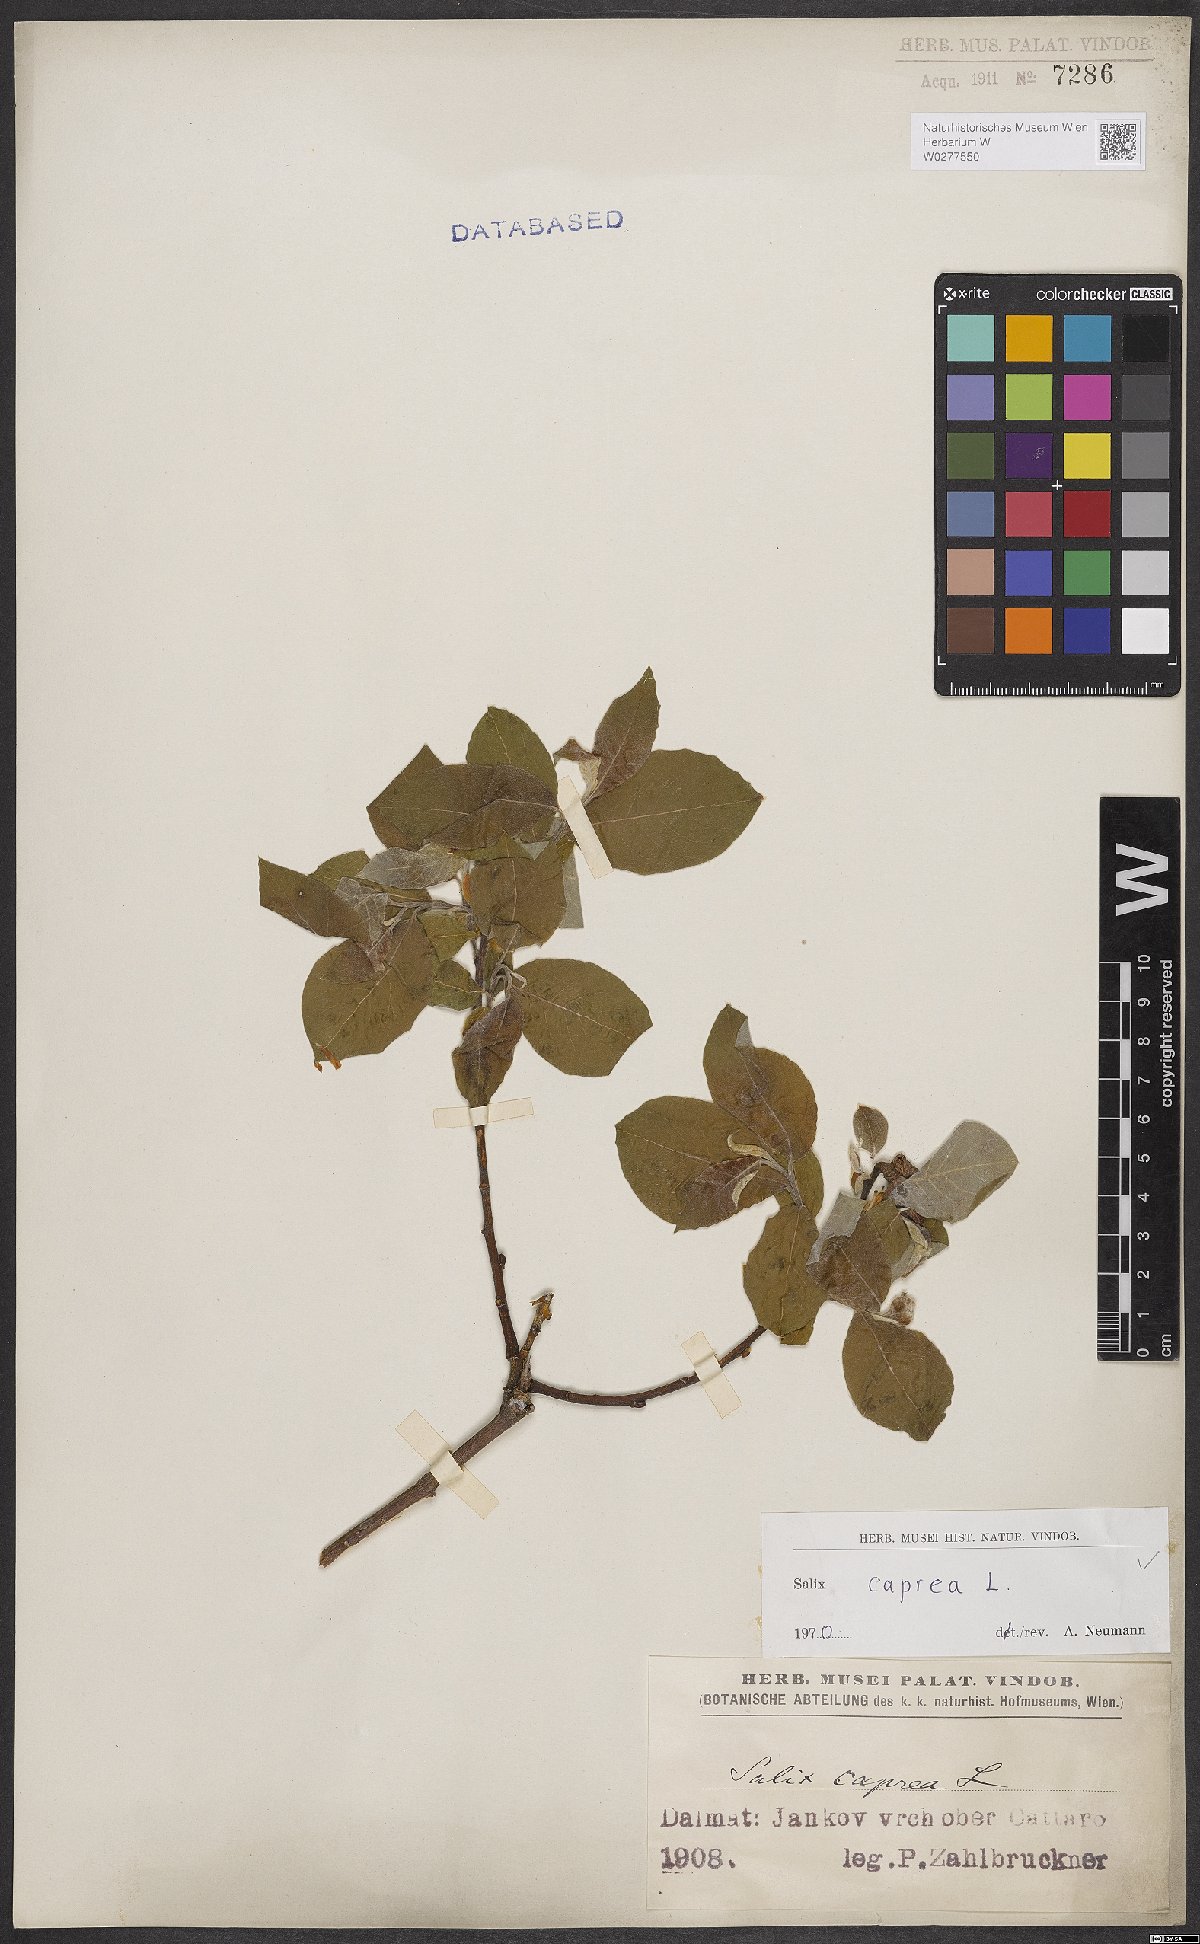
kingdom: Plantae
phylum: Tracheophyta
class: Magnoliopsida
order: Malpighiales
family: Salicaceae
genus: Salix
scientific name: Salix caprea
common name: Goat willow
